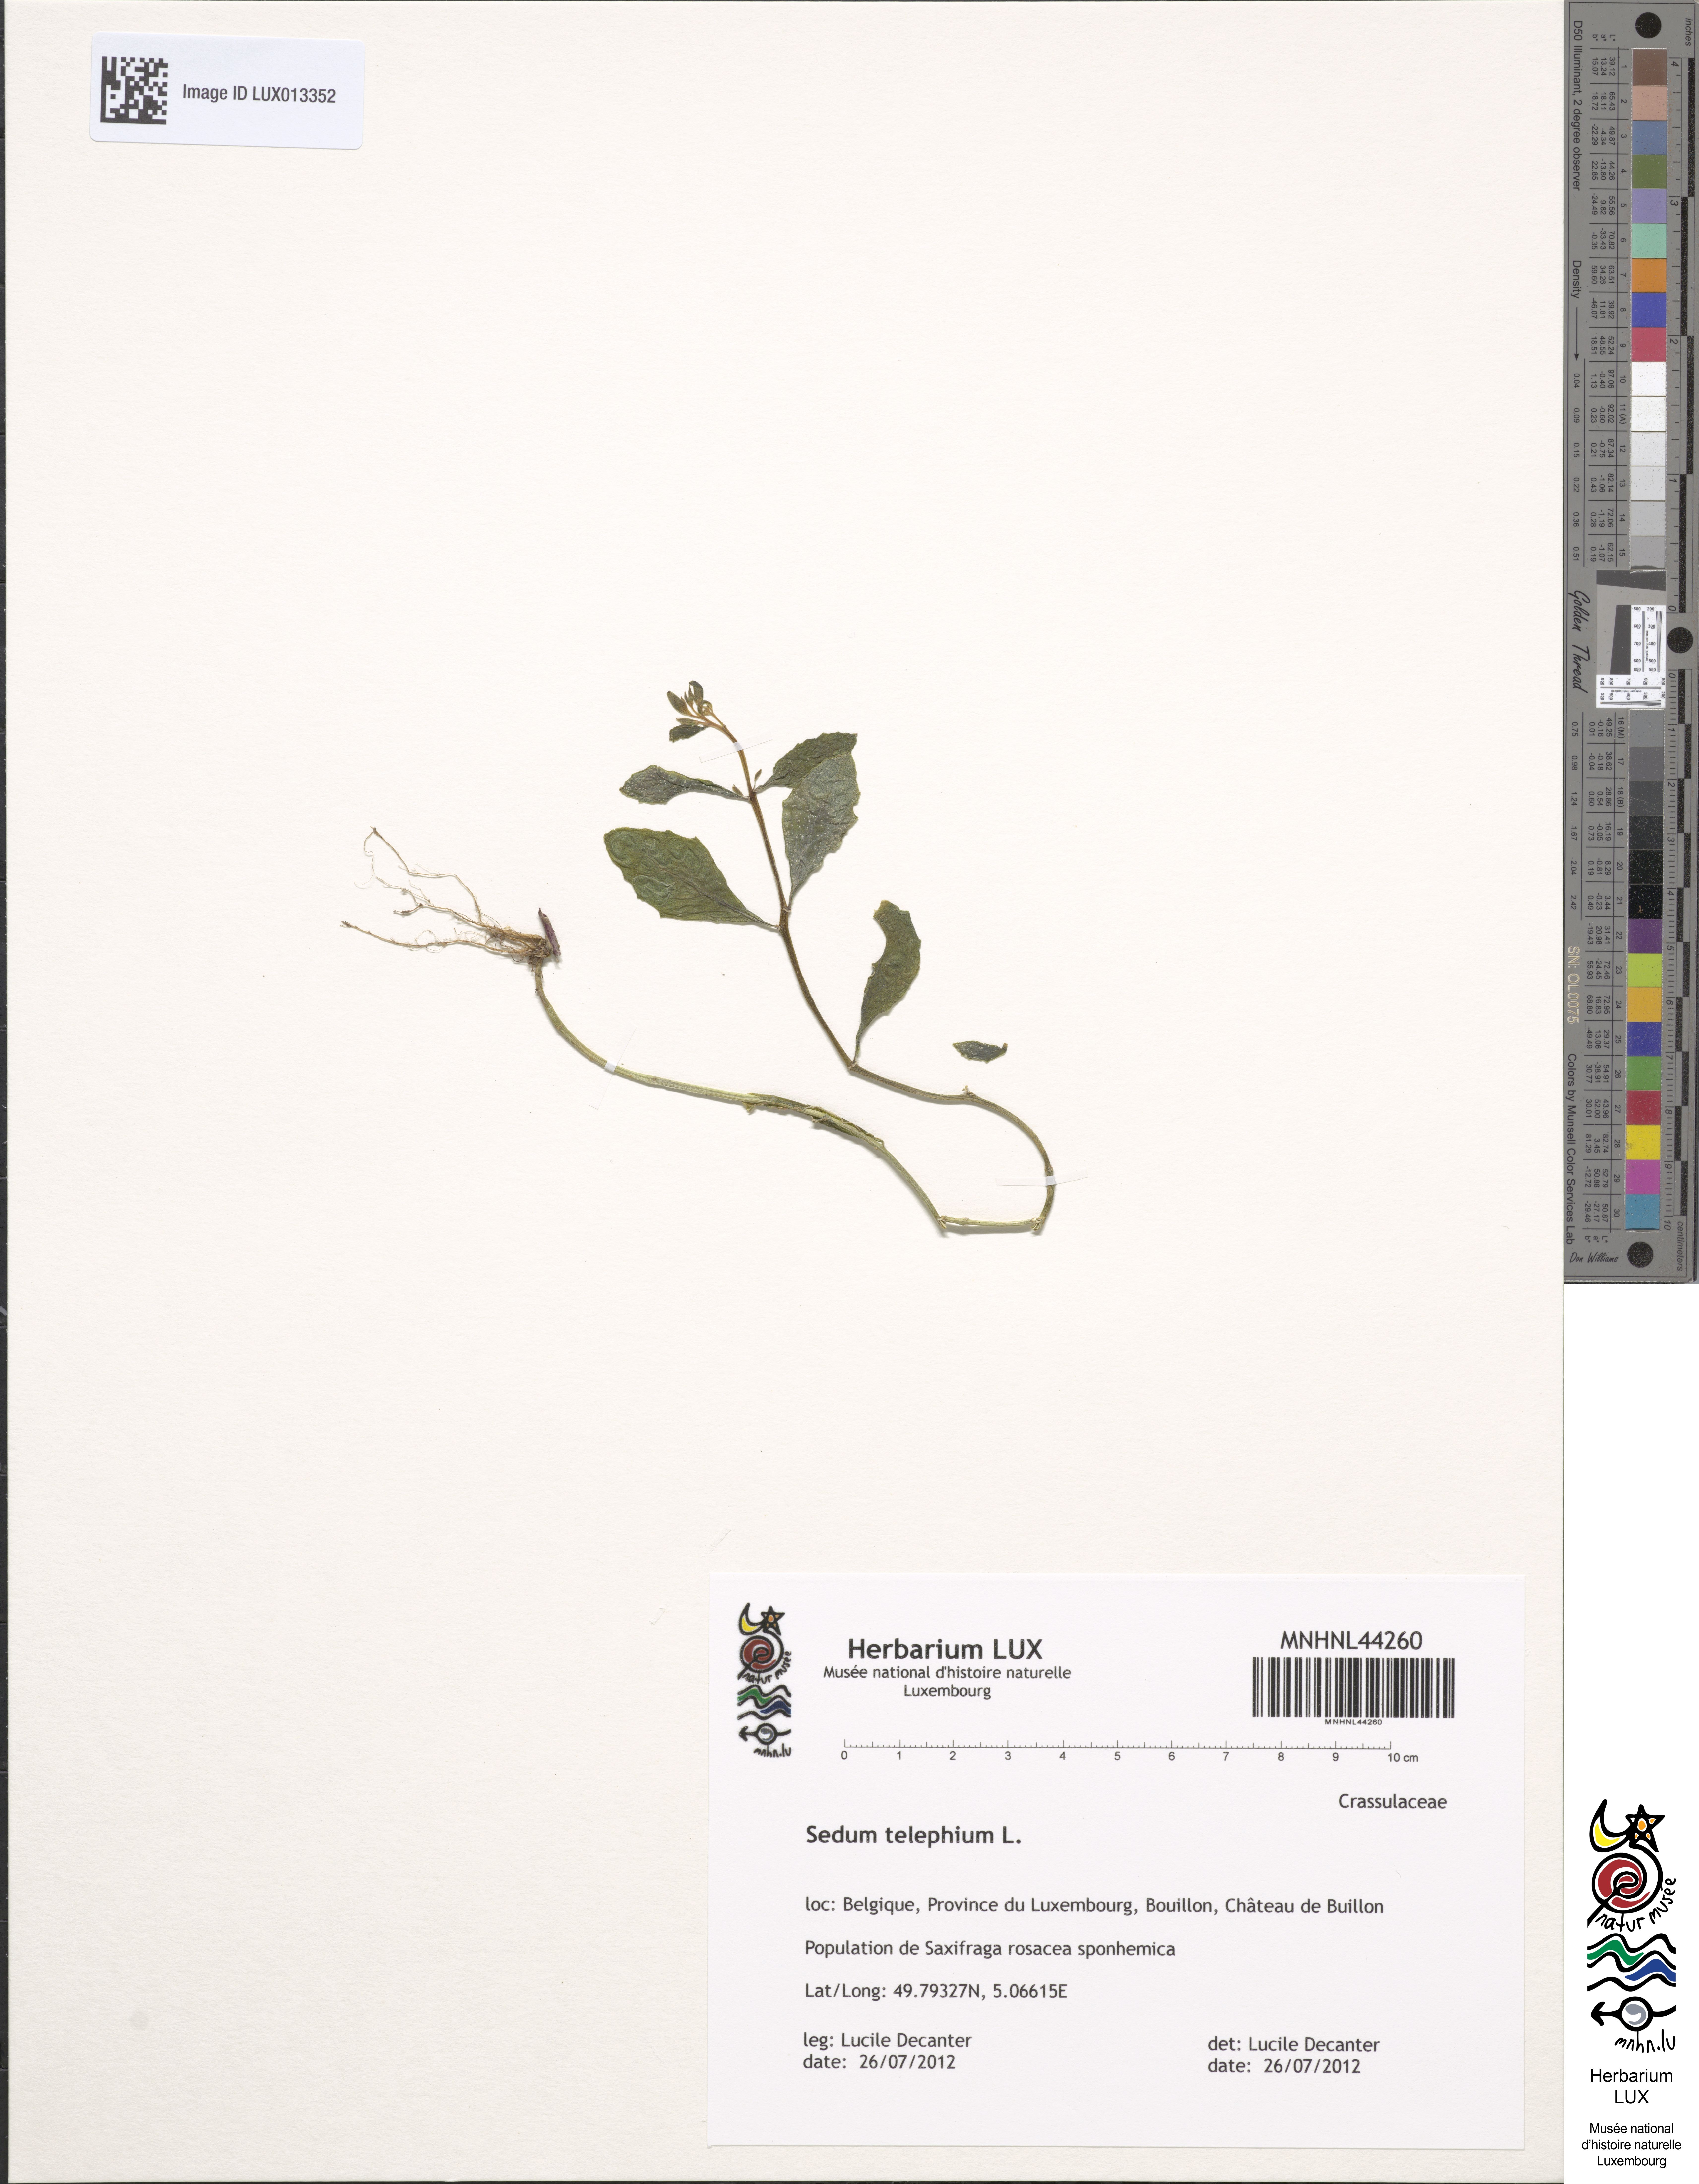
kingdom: Plantae
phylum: Tracheophyta
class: Magnoliopsida
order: Saxifragales
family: Crassulaceae
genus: Hylotelephium
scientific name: Hylotelephium telephium
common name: Live-forever
